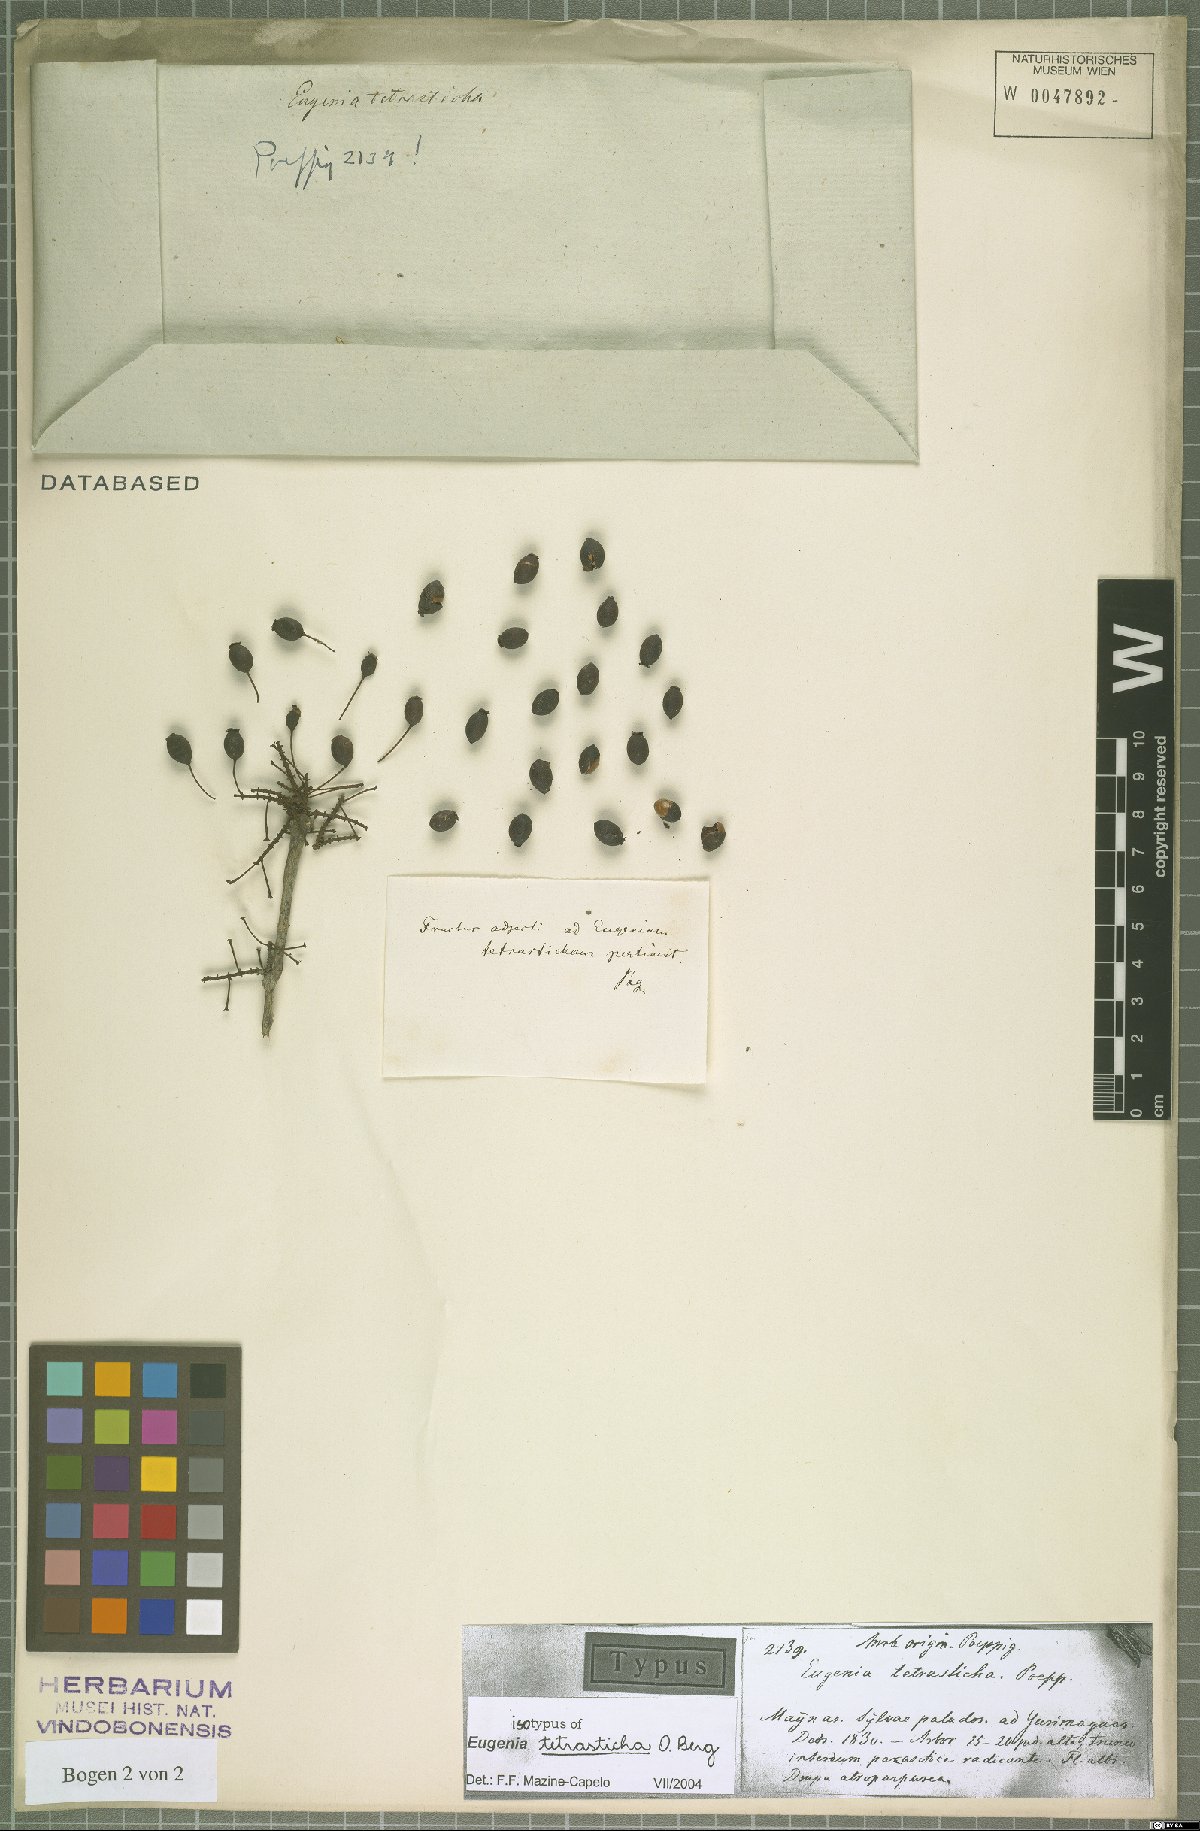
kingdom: Plantae
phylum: Tracheophyta
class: Magnoliopsida
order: Myrtales
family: Myrtaceae
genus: Eugenia
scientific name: Eugenia tetrasticha
